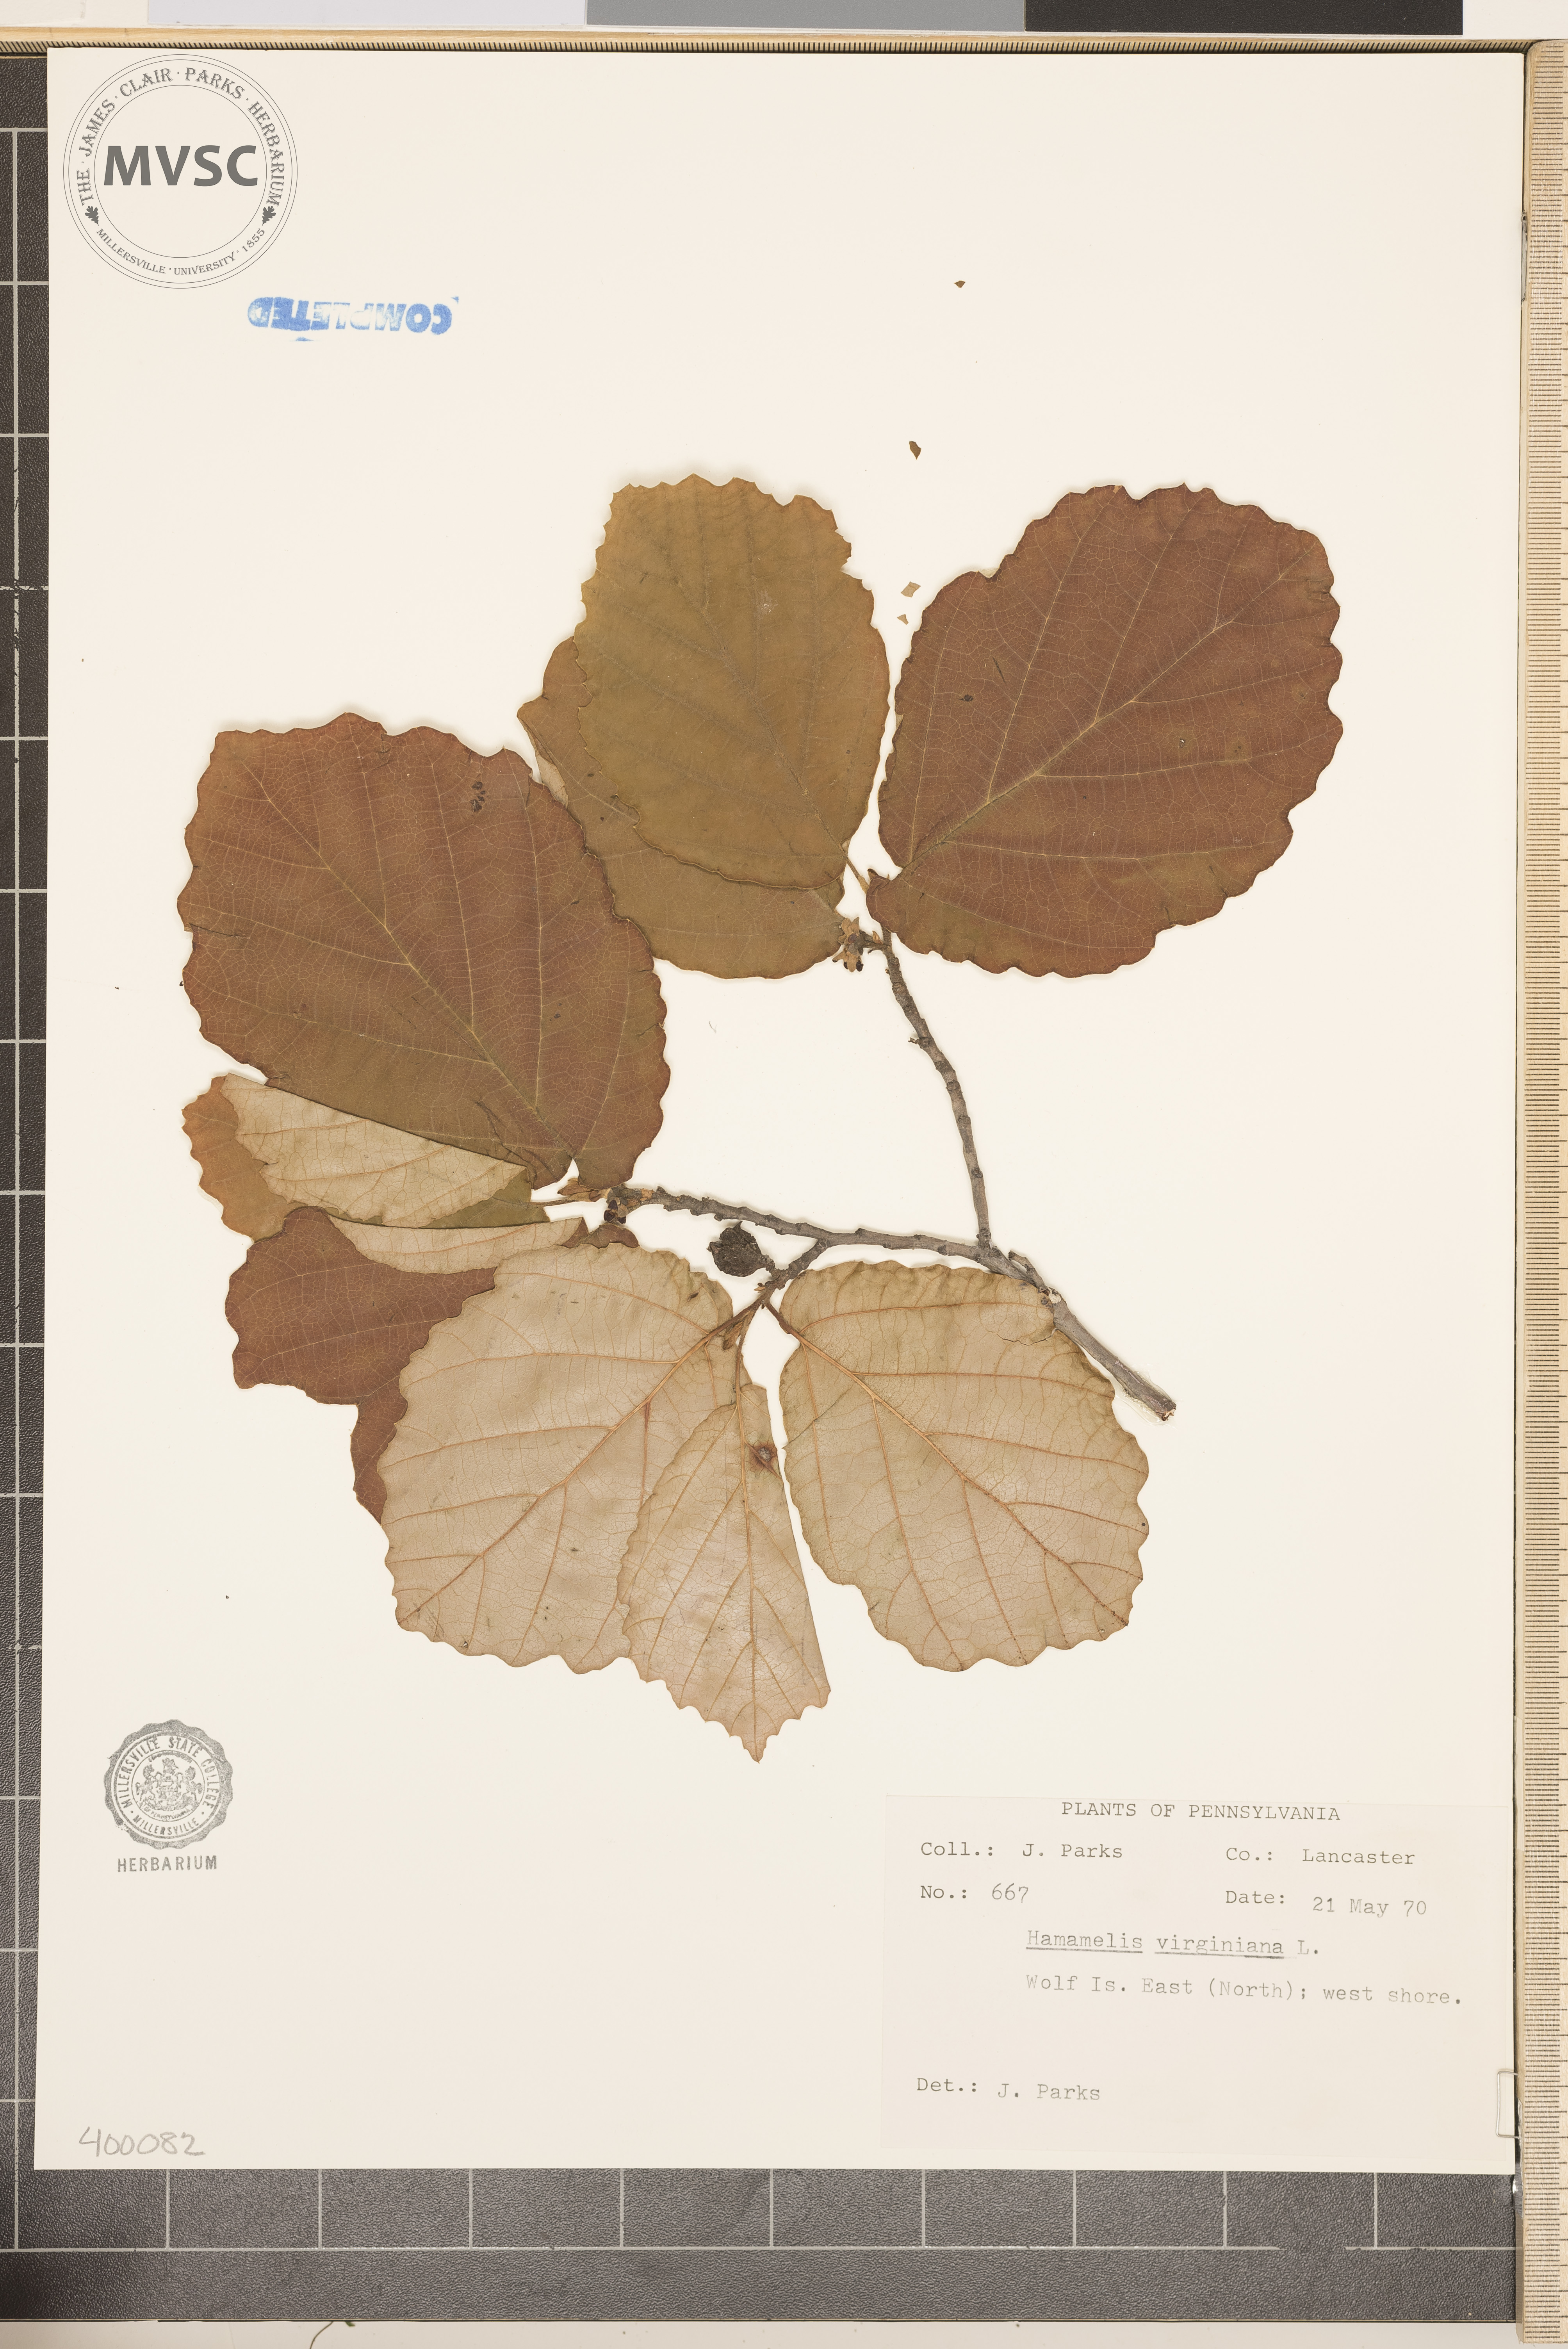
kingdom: Plantae
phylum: Tracheophyta
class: Magnoliopsida
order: Saxifragales
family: Hamamelidaceae
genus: Hamamelis
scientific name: Hamamelis virginiana
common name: witch-hazel
